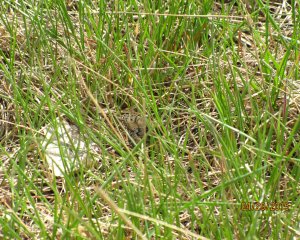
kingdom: Animalia
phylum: Arthropoda
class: Insecta
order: Lepidoptera
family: Nymphalidae
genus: Oeneis
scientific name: Oeneis alberta
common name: Alberta Arctic
